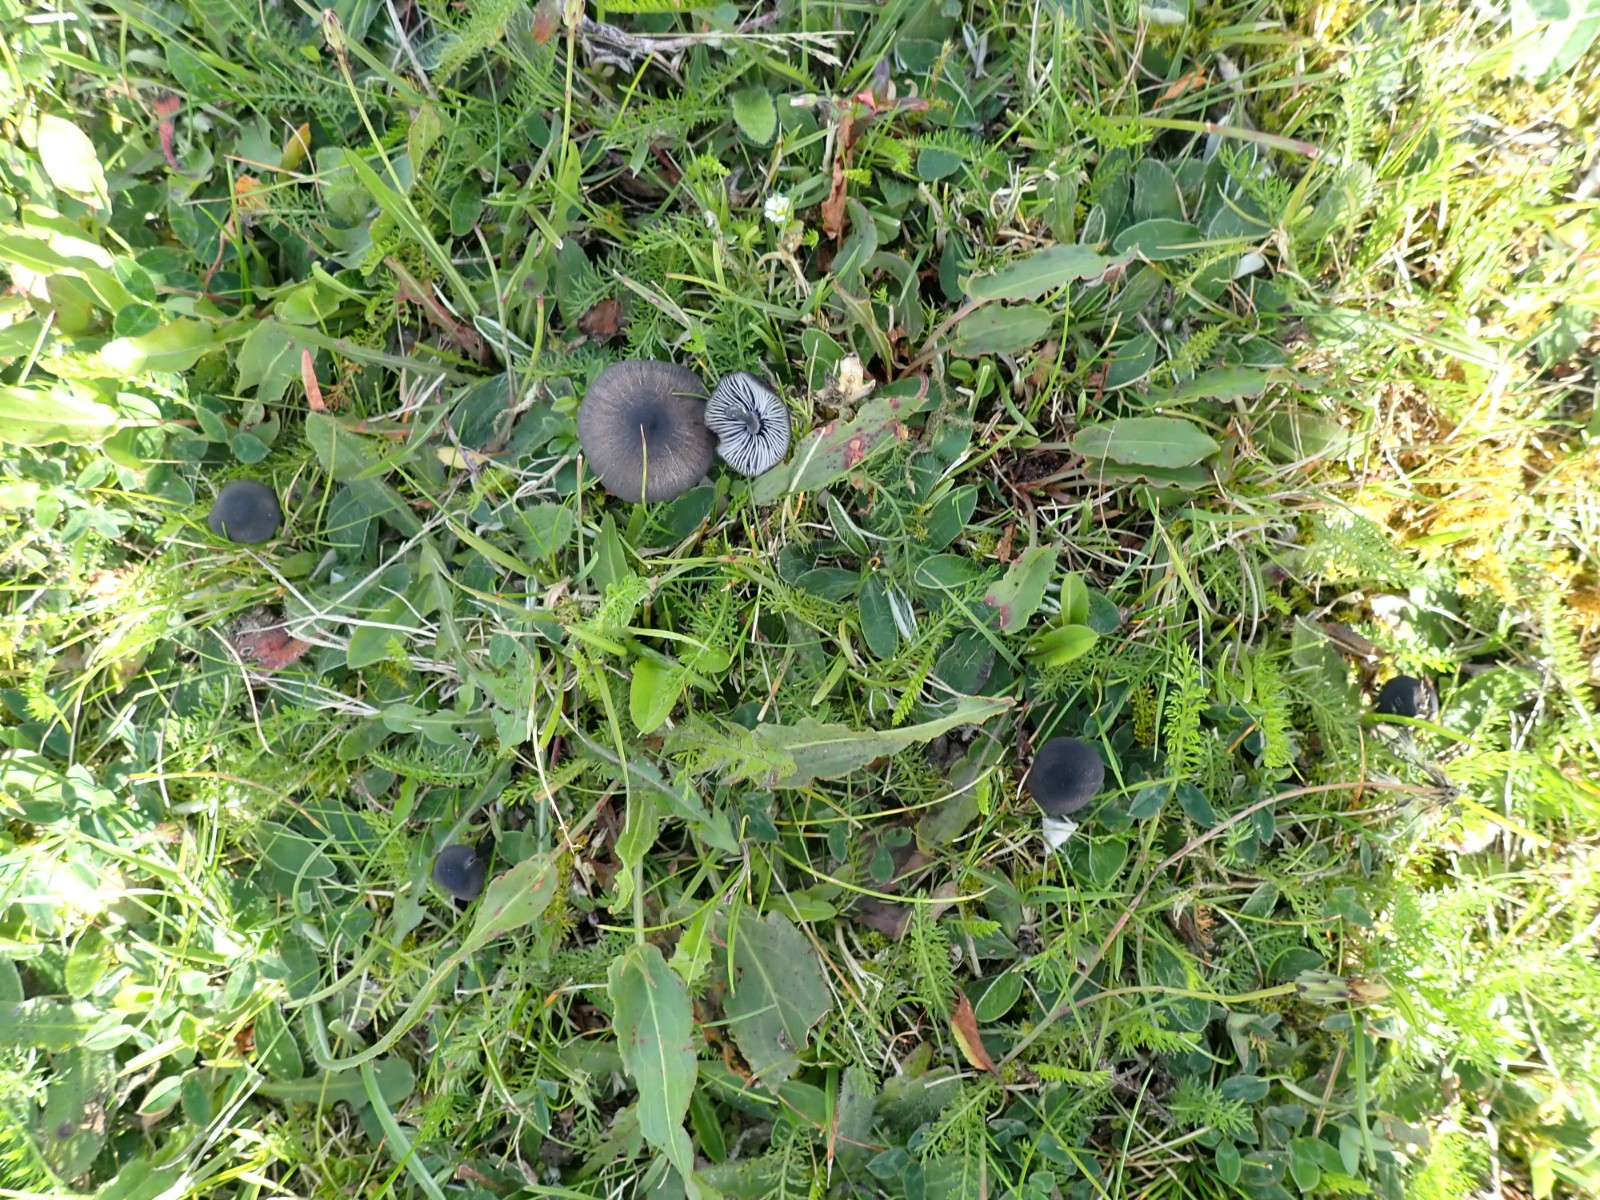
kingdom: Fungi
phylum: Basidiomycota
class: Agaricomycetes
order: Agaricales
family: Entolomataceae
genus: Entoloma
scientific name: Entoloma
